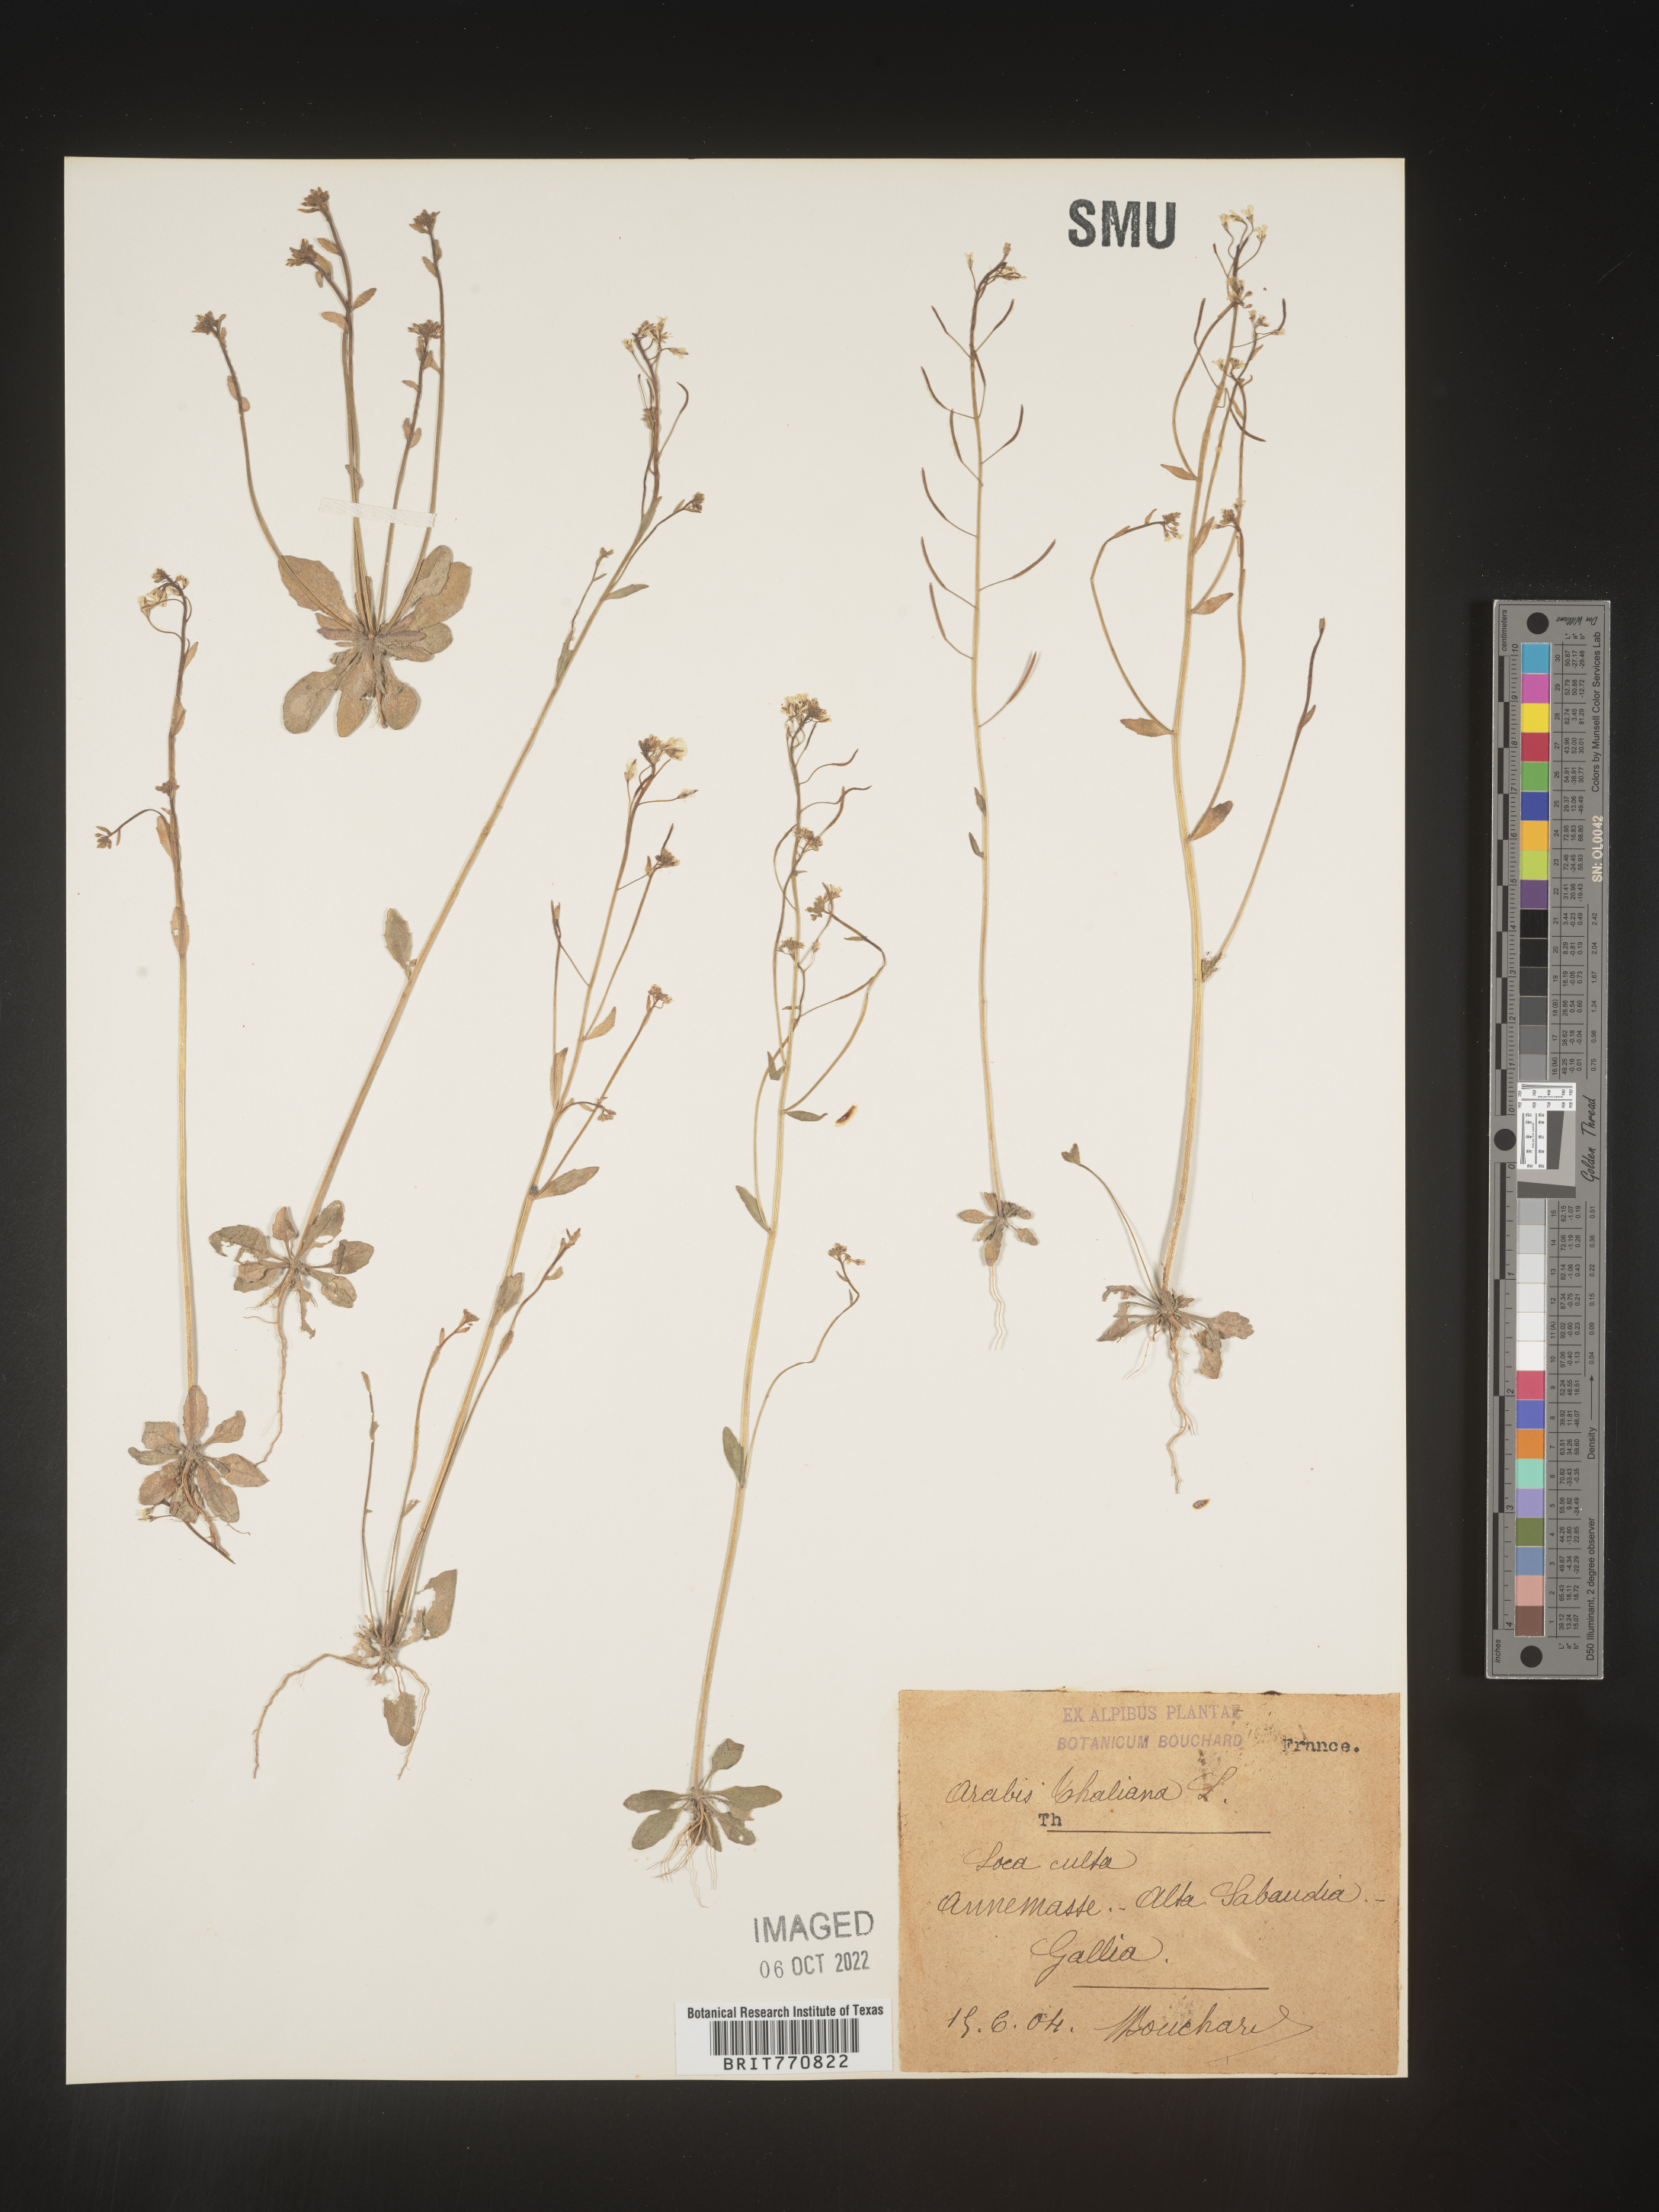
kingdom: Plantae
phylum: Tracheophyta
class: Magnoliopsida
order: Brassicales
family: Brassicaceae
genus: Arabidopsis
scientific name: Arabidopsis
